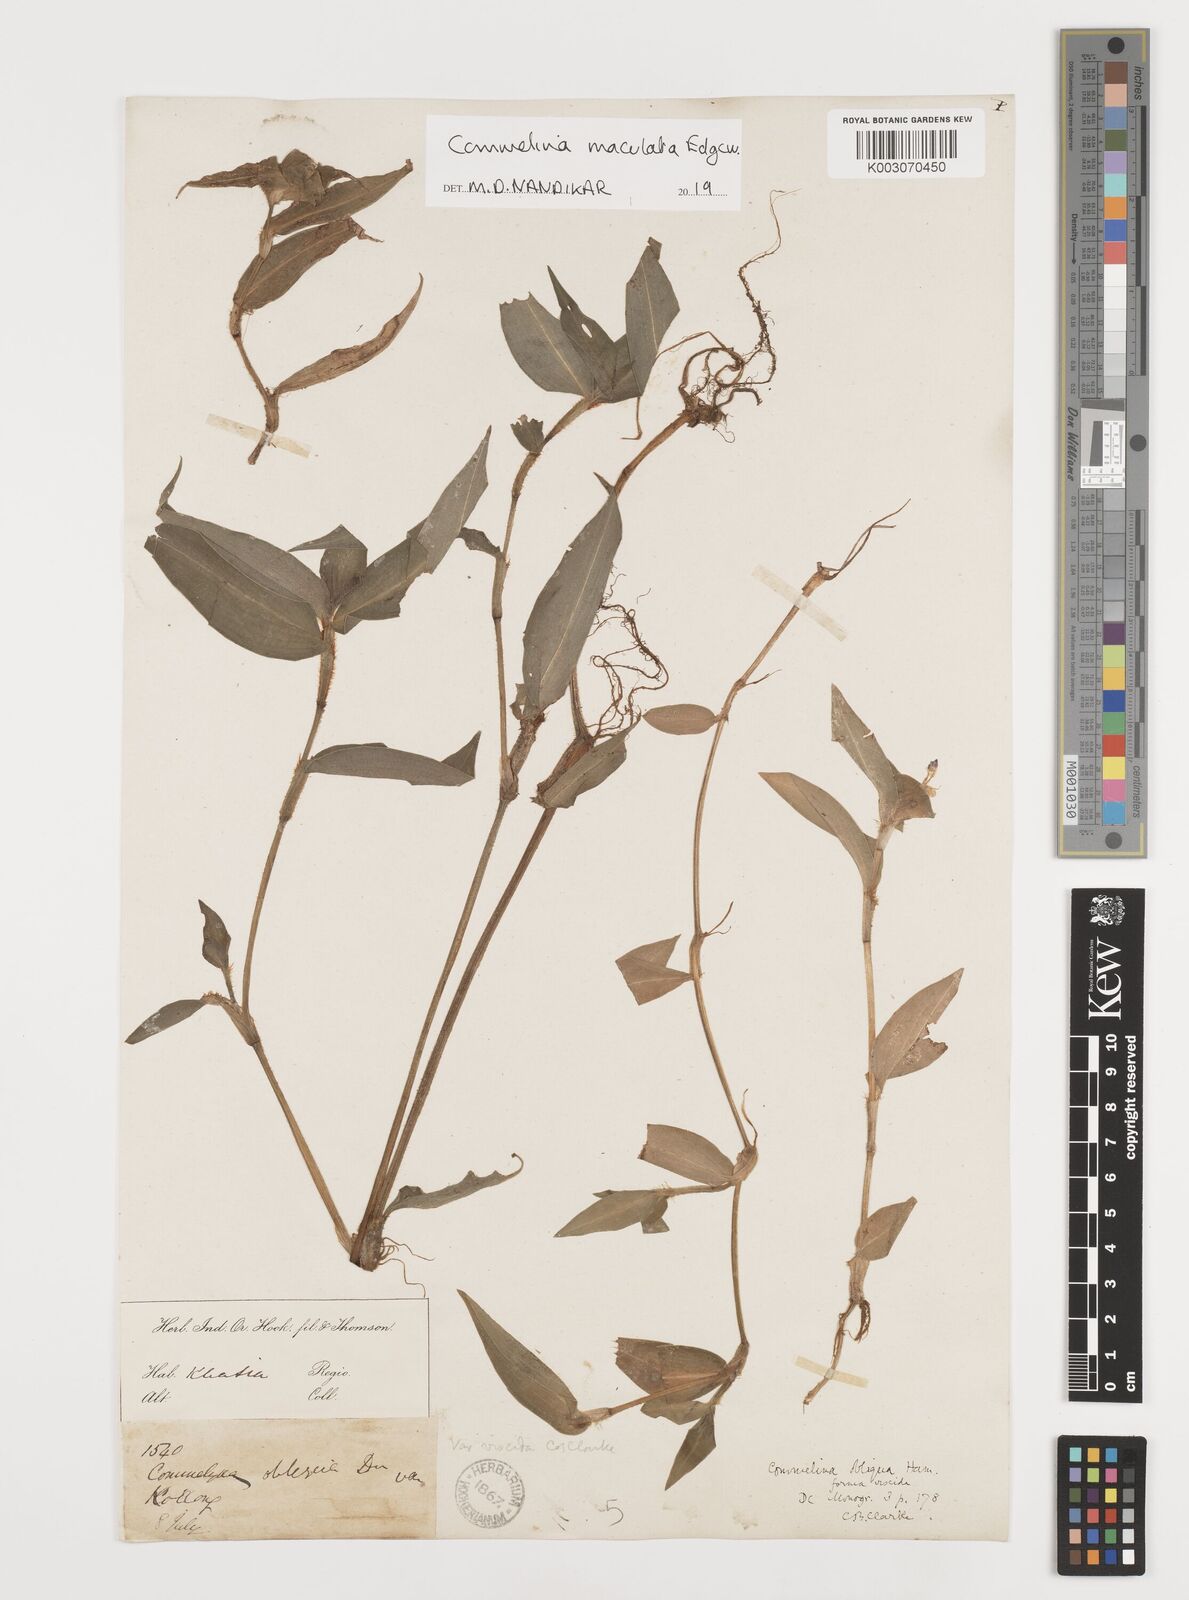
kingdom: Plantae
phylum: Tracheophyta
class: Liliopsida
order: Commelinales
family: Commelinaceae
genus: Commelina
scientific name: Commelina maculata
